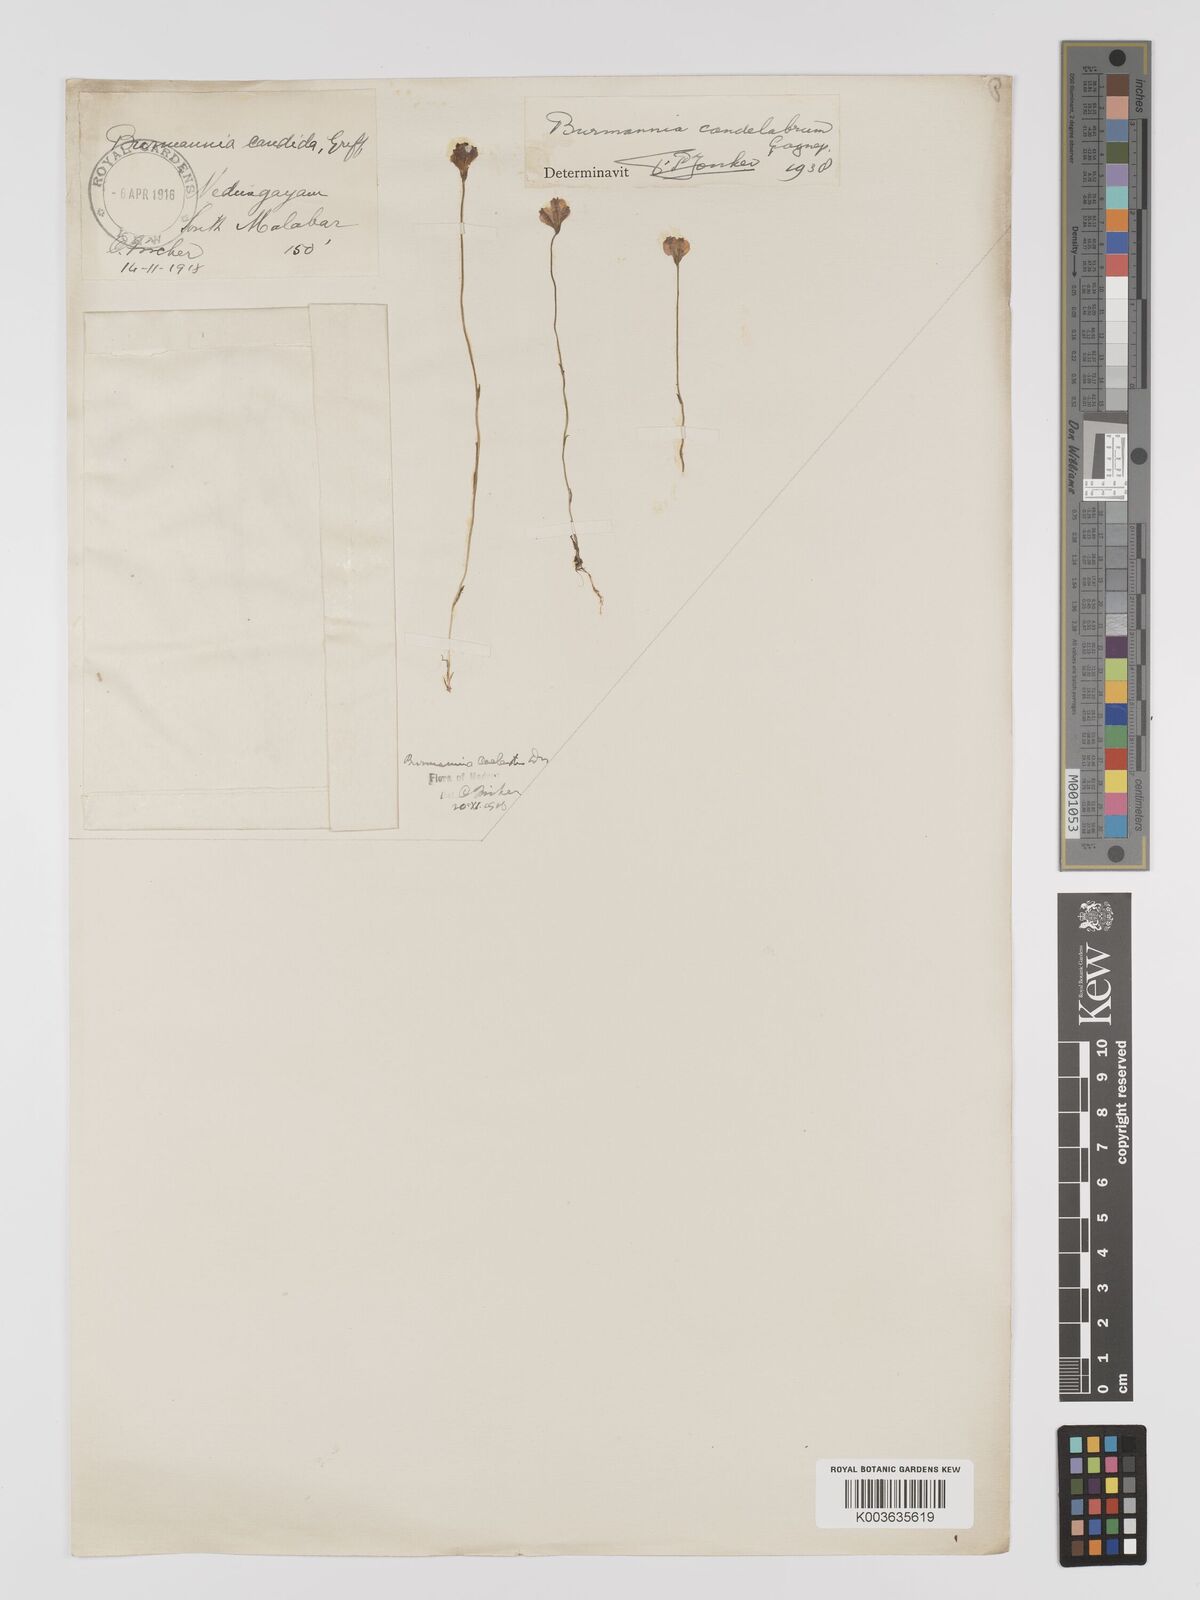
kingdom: Plantae
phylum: Tracheophyta
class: Liliopsida
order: Dioscoreales
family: Burmanniaceae
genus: Burmannia
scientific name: Burmannia candelabrum
